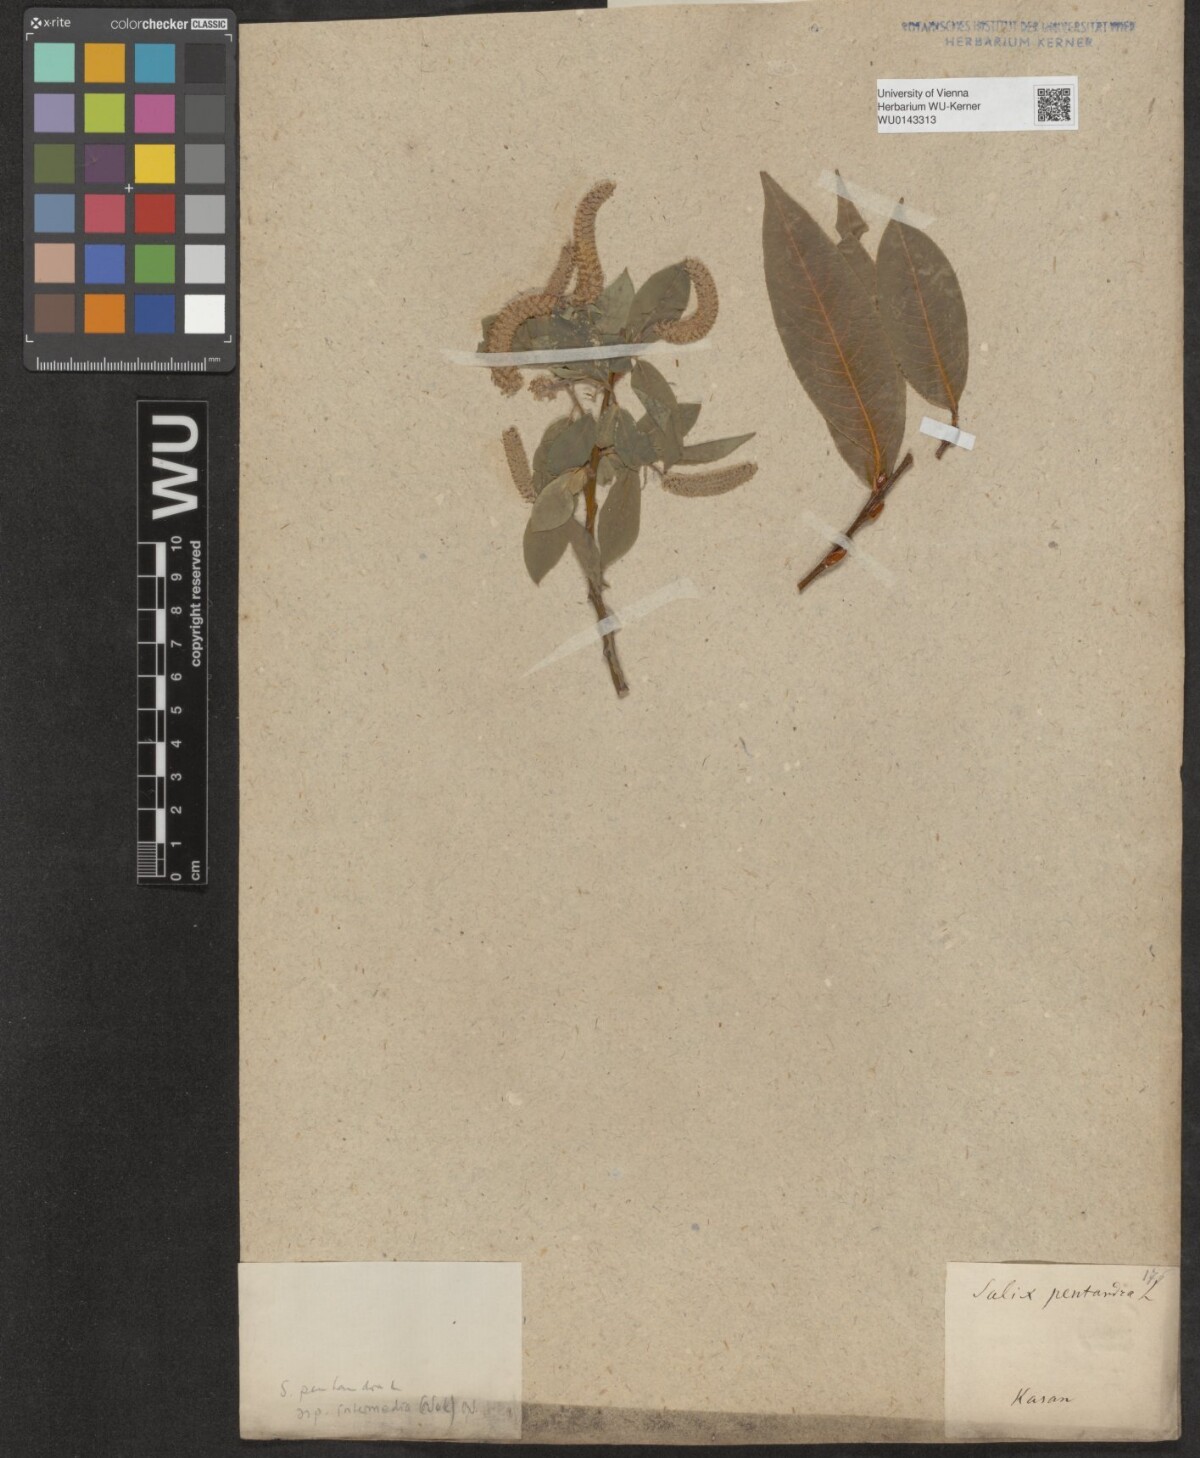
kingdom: Plantae
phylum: Tracheophyta
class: Magnoliopsida
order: Malpighiales
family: Salicaceae
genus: Salix
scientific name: Salix pentandra
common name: Bay willow
